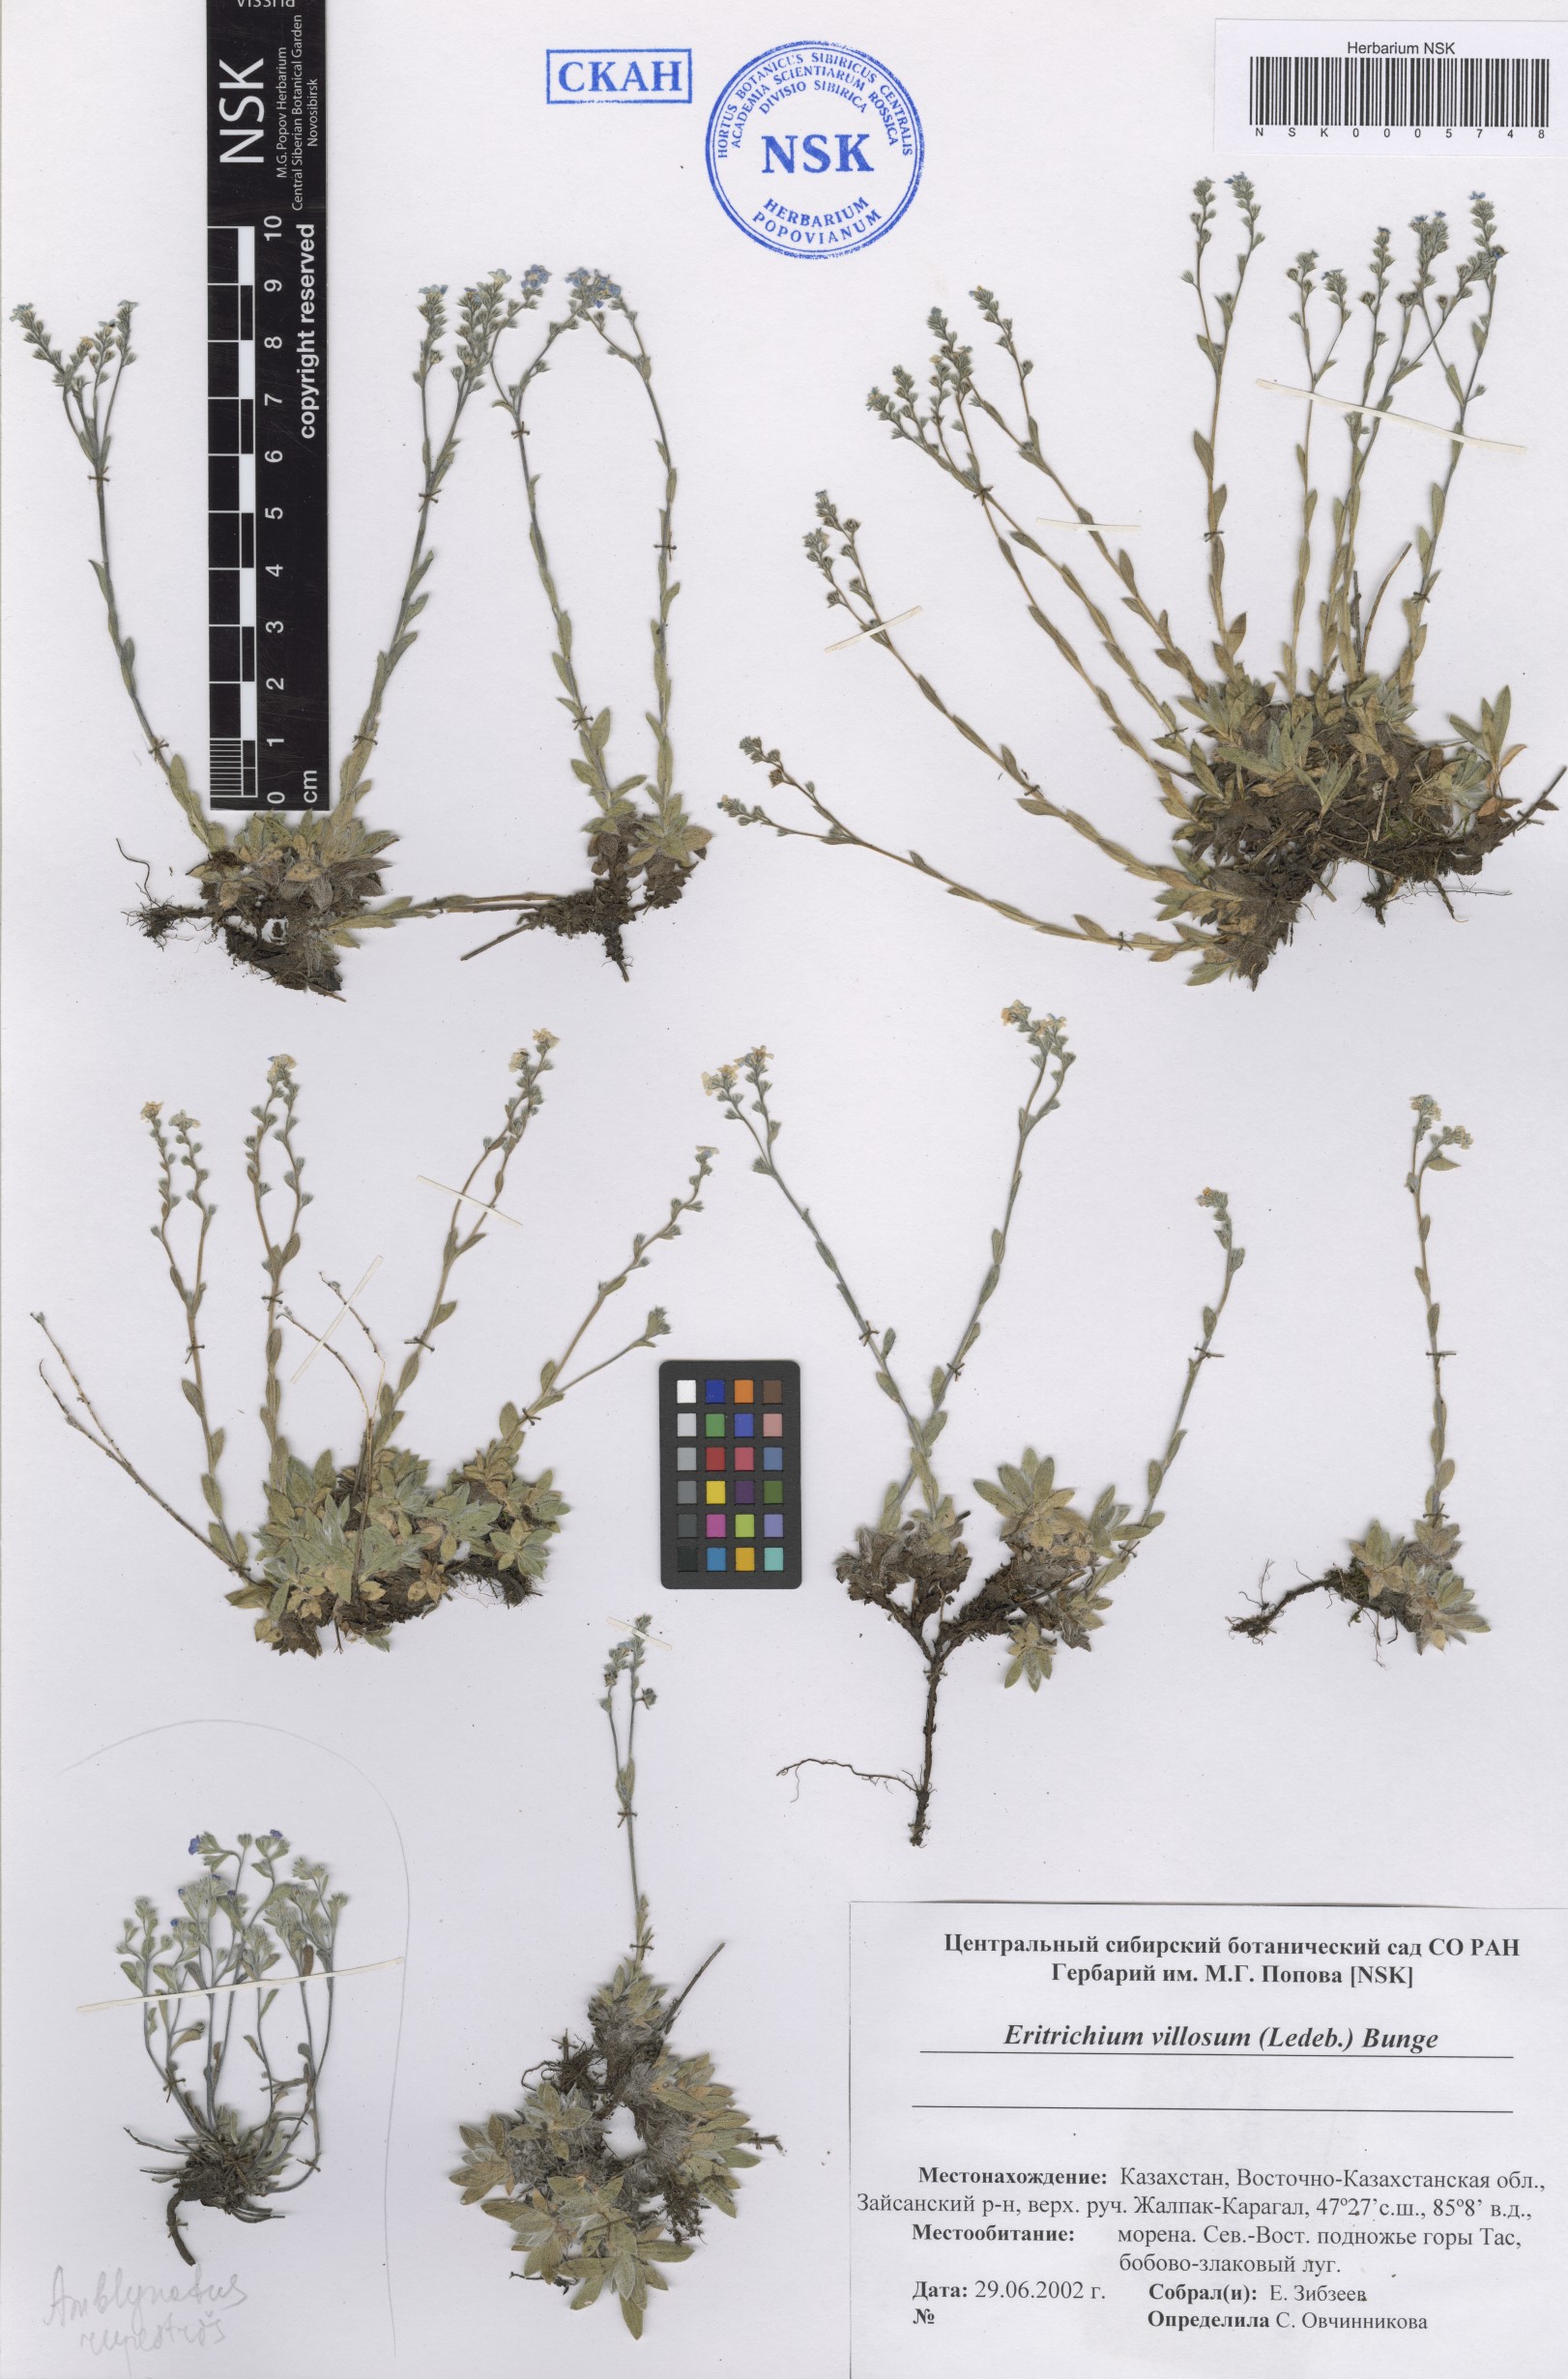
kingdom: Plantae
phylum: Tracheophyta
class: Magnoliopsida
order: Boraginales
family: Boraginaceae
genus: Eritrichium
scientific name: Eritrichium villosum
